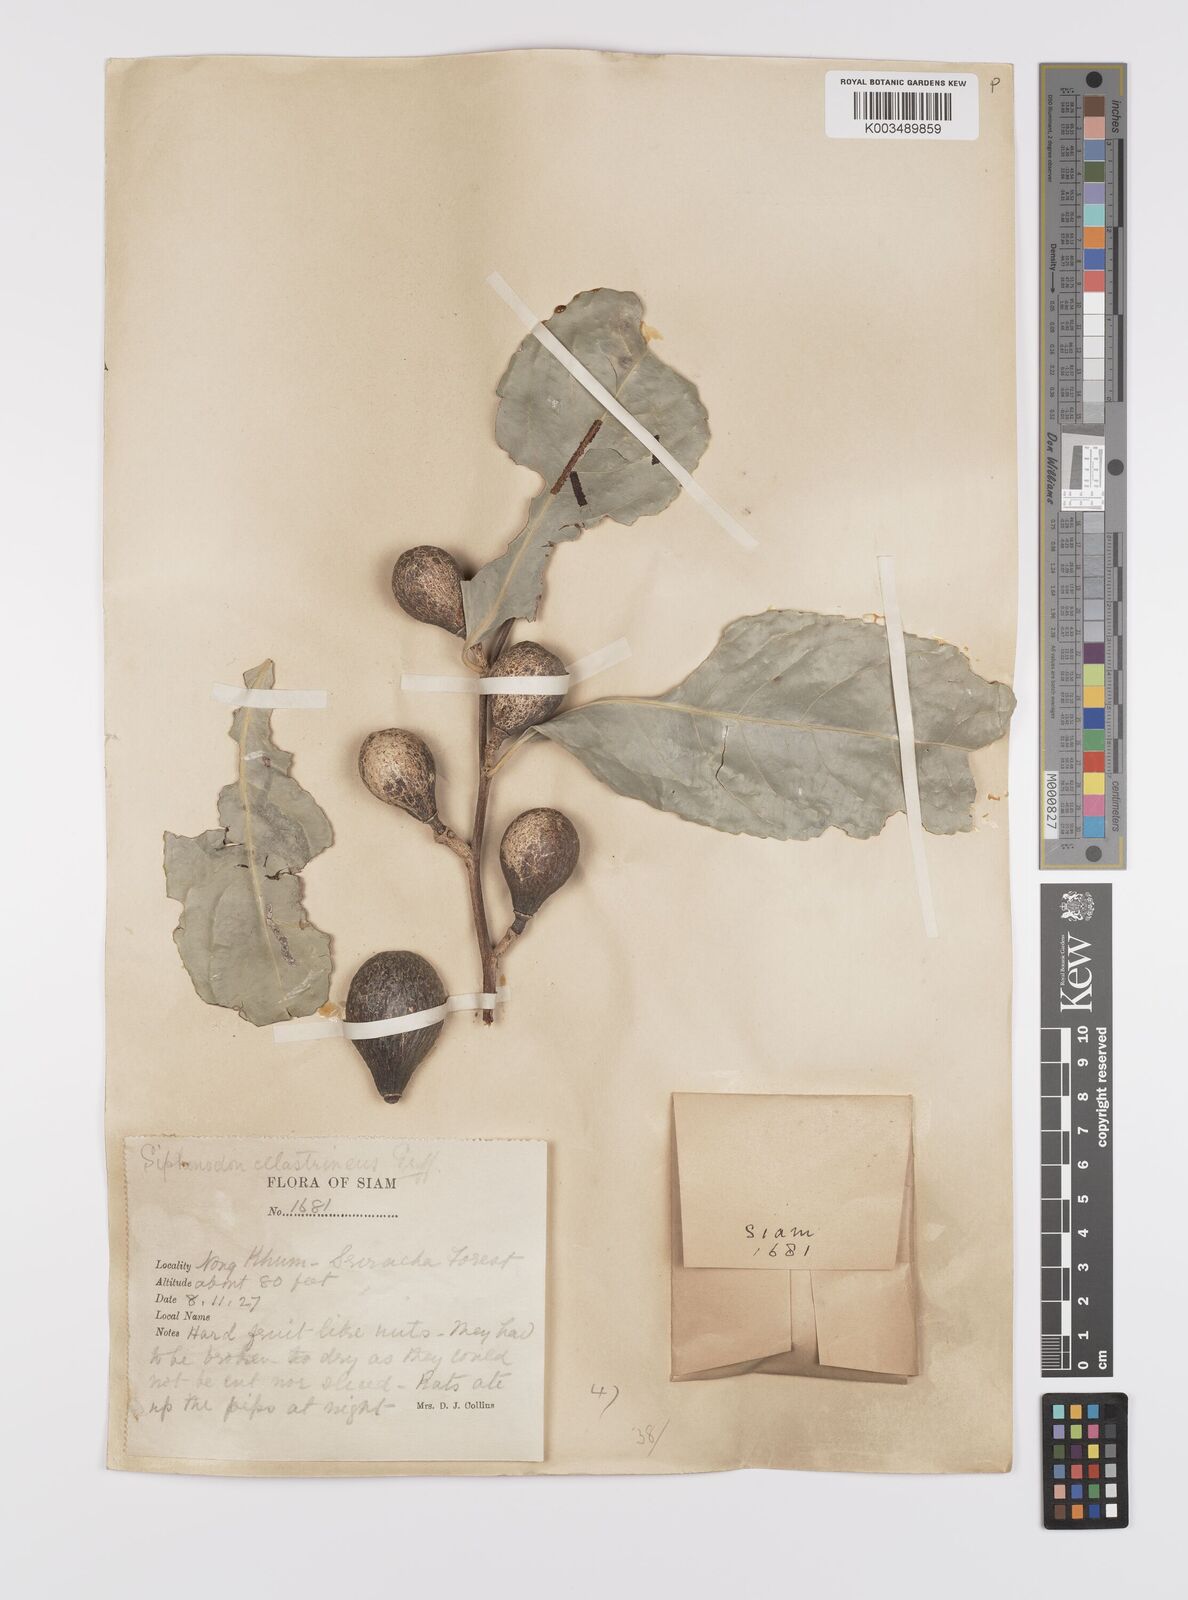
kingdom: Plantae
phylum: Tracheophyta
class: Magnoliopsida
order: Celastrales
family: Celastraceae
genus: Siphonodon
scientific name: Siphonodon celastrineus
